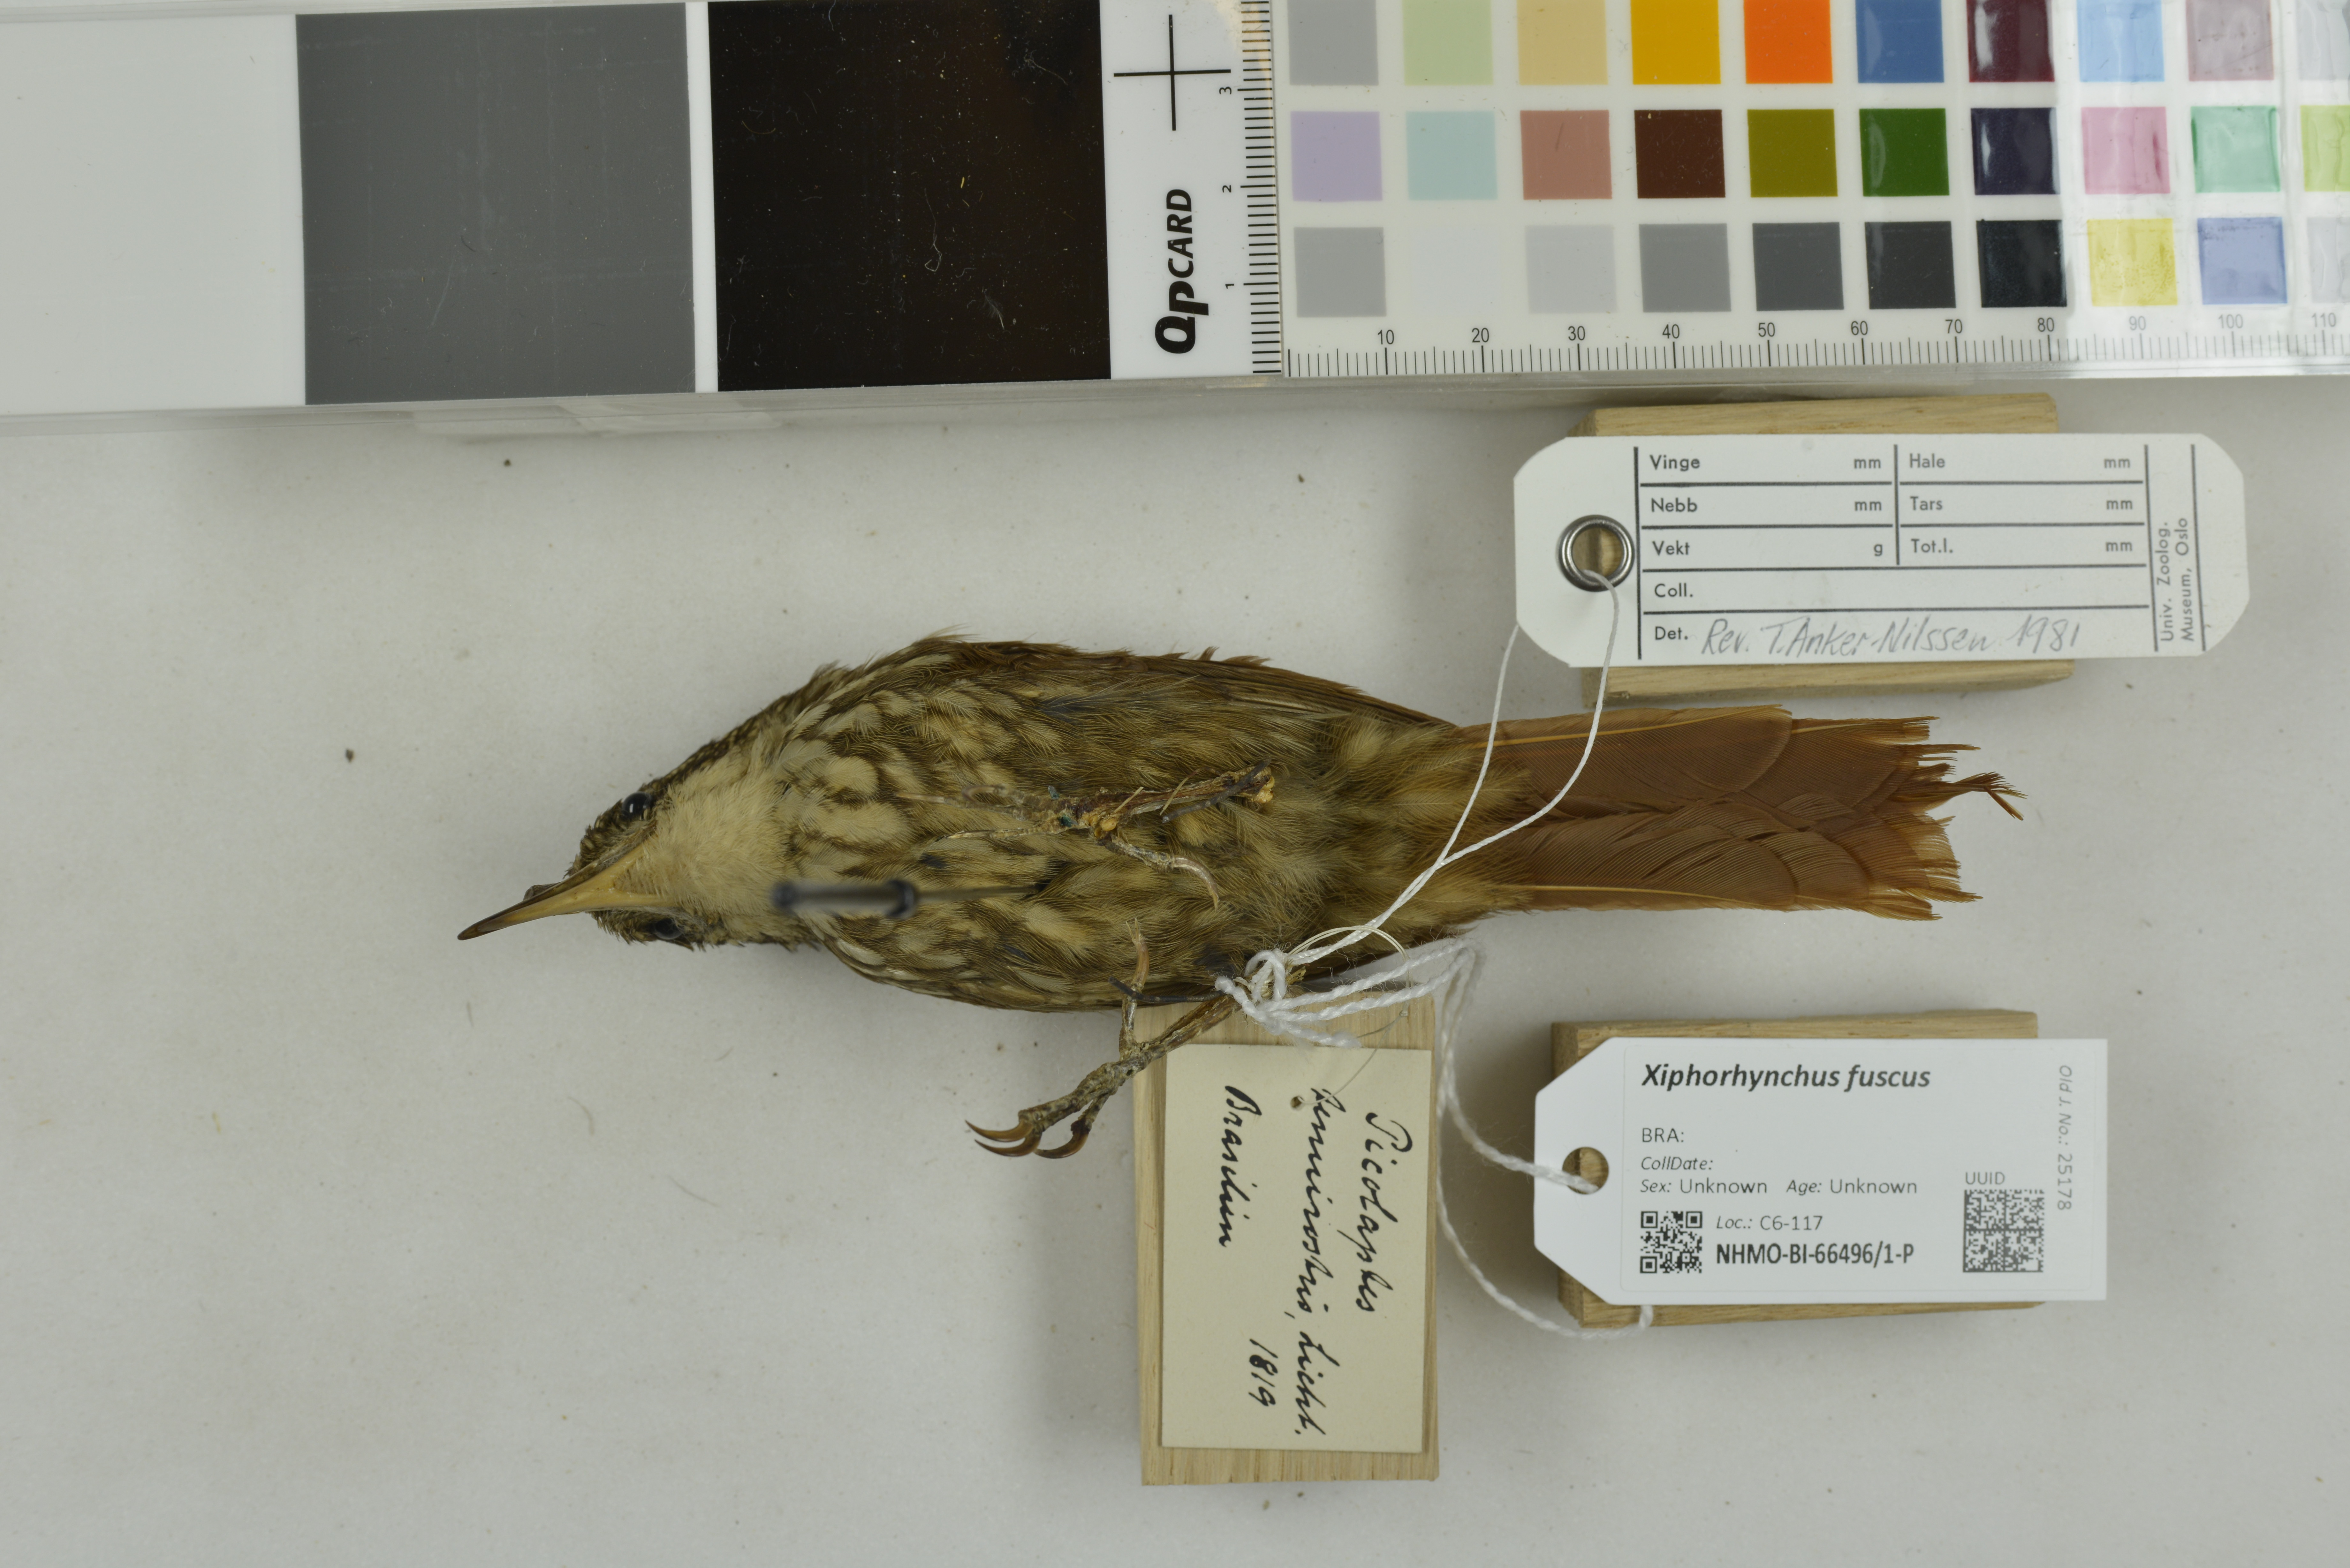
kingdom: Animalia
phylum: Chordata
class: Aves
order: Passeriformes
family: Furnariidae
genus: Xiphorhynchus
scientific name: Xiphorhynchus fuscus
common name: Lesser woodcreeper
